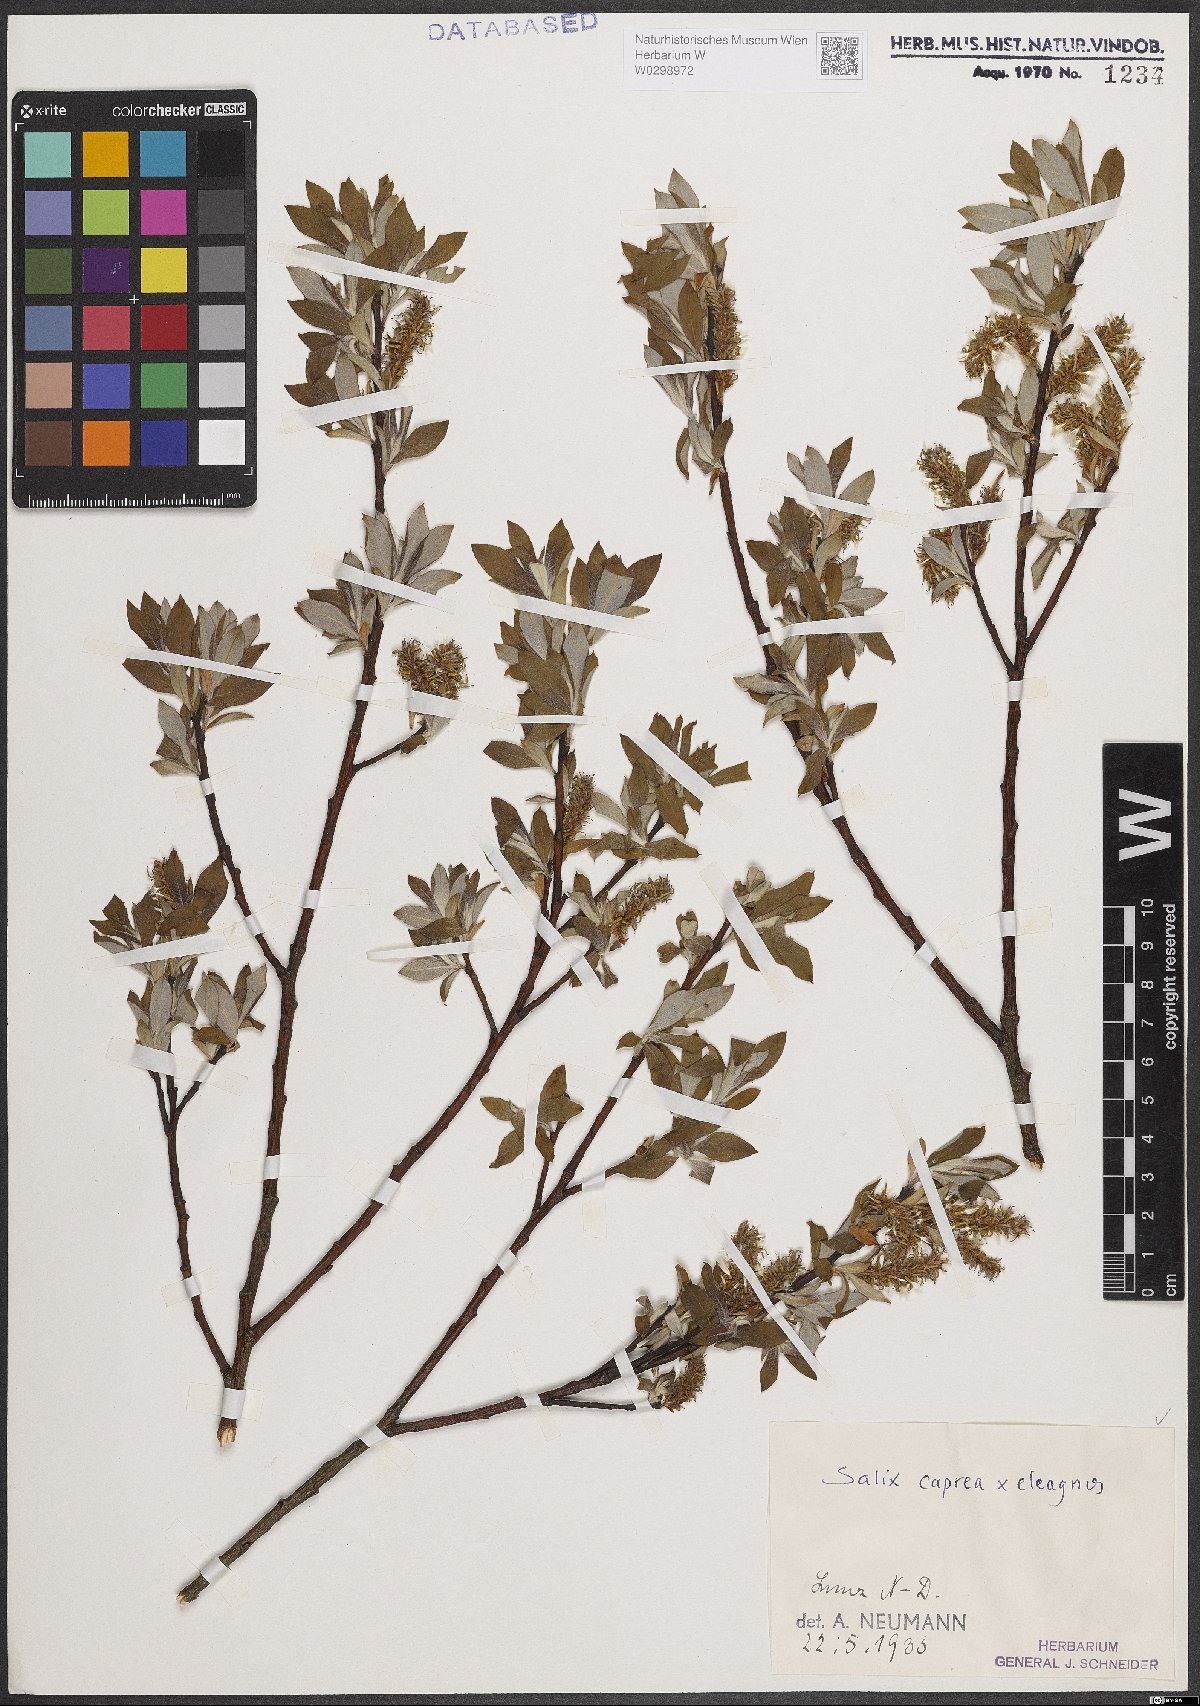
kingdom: Plantae
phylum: Tracheophyta
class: Magnoliopsida
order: Malpighiales
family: Salicaceae
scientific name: Salicaceae
